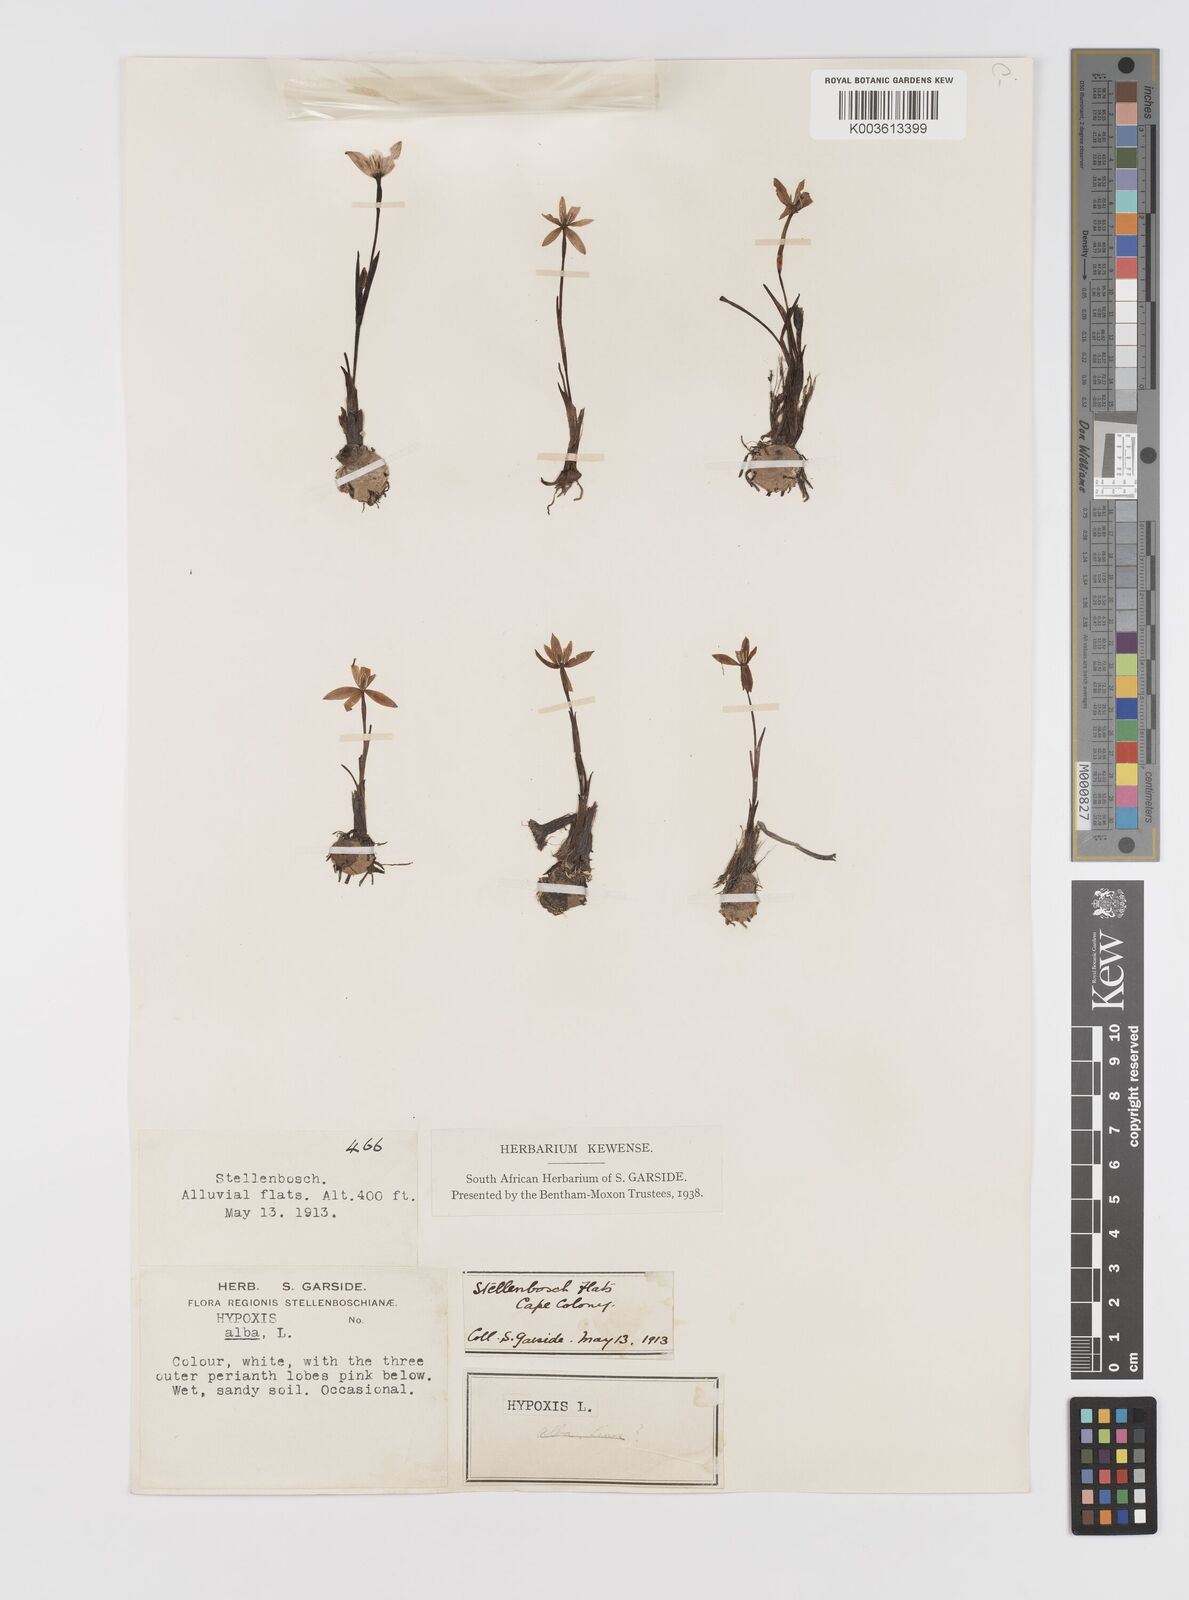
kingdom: Plantae
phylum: Tracheophyta
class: Liliopsida
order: Asparagales
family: Hypoxidaceae
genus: Pauridia
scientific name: Pauridia alba
